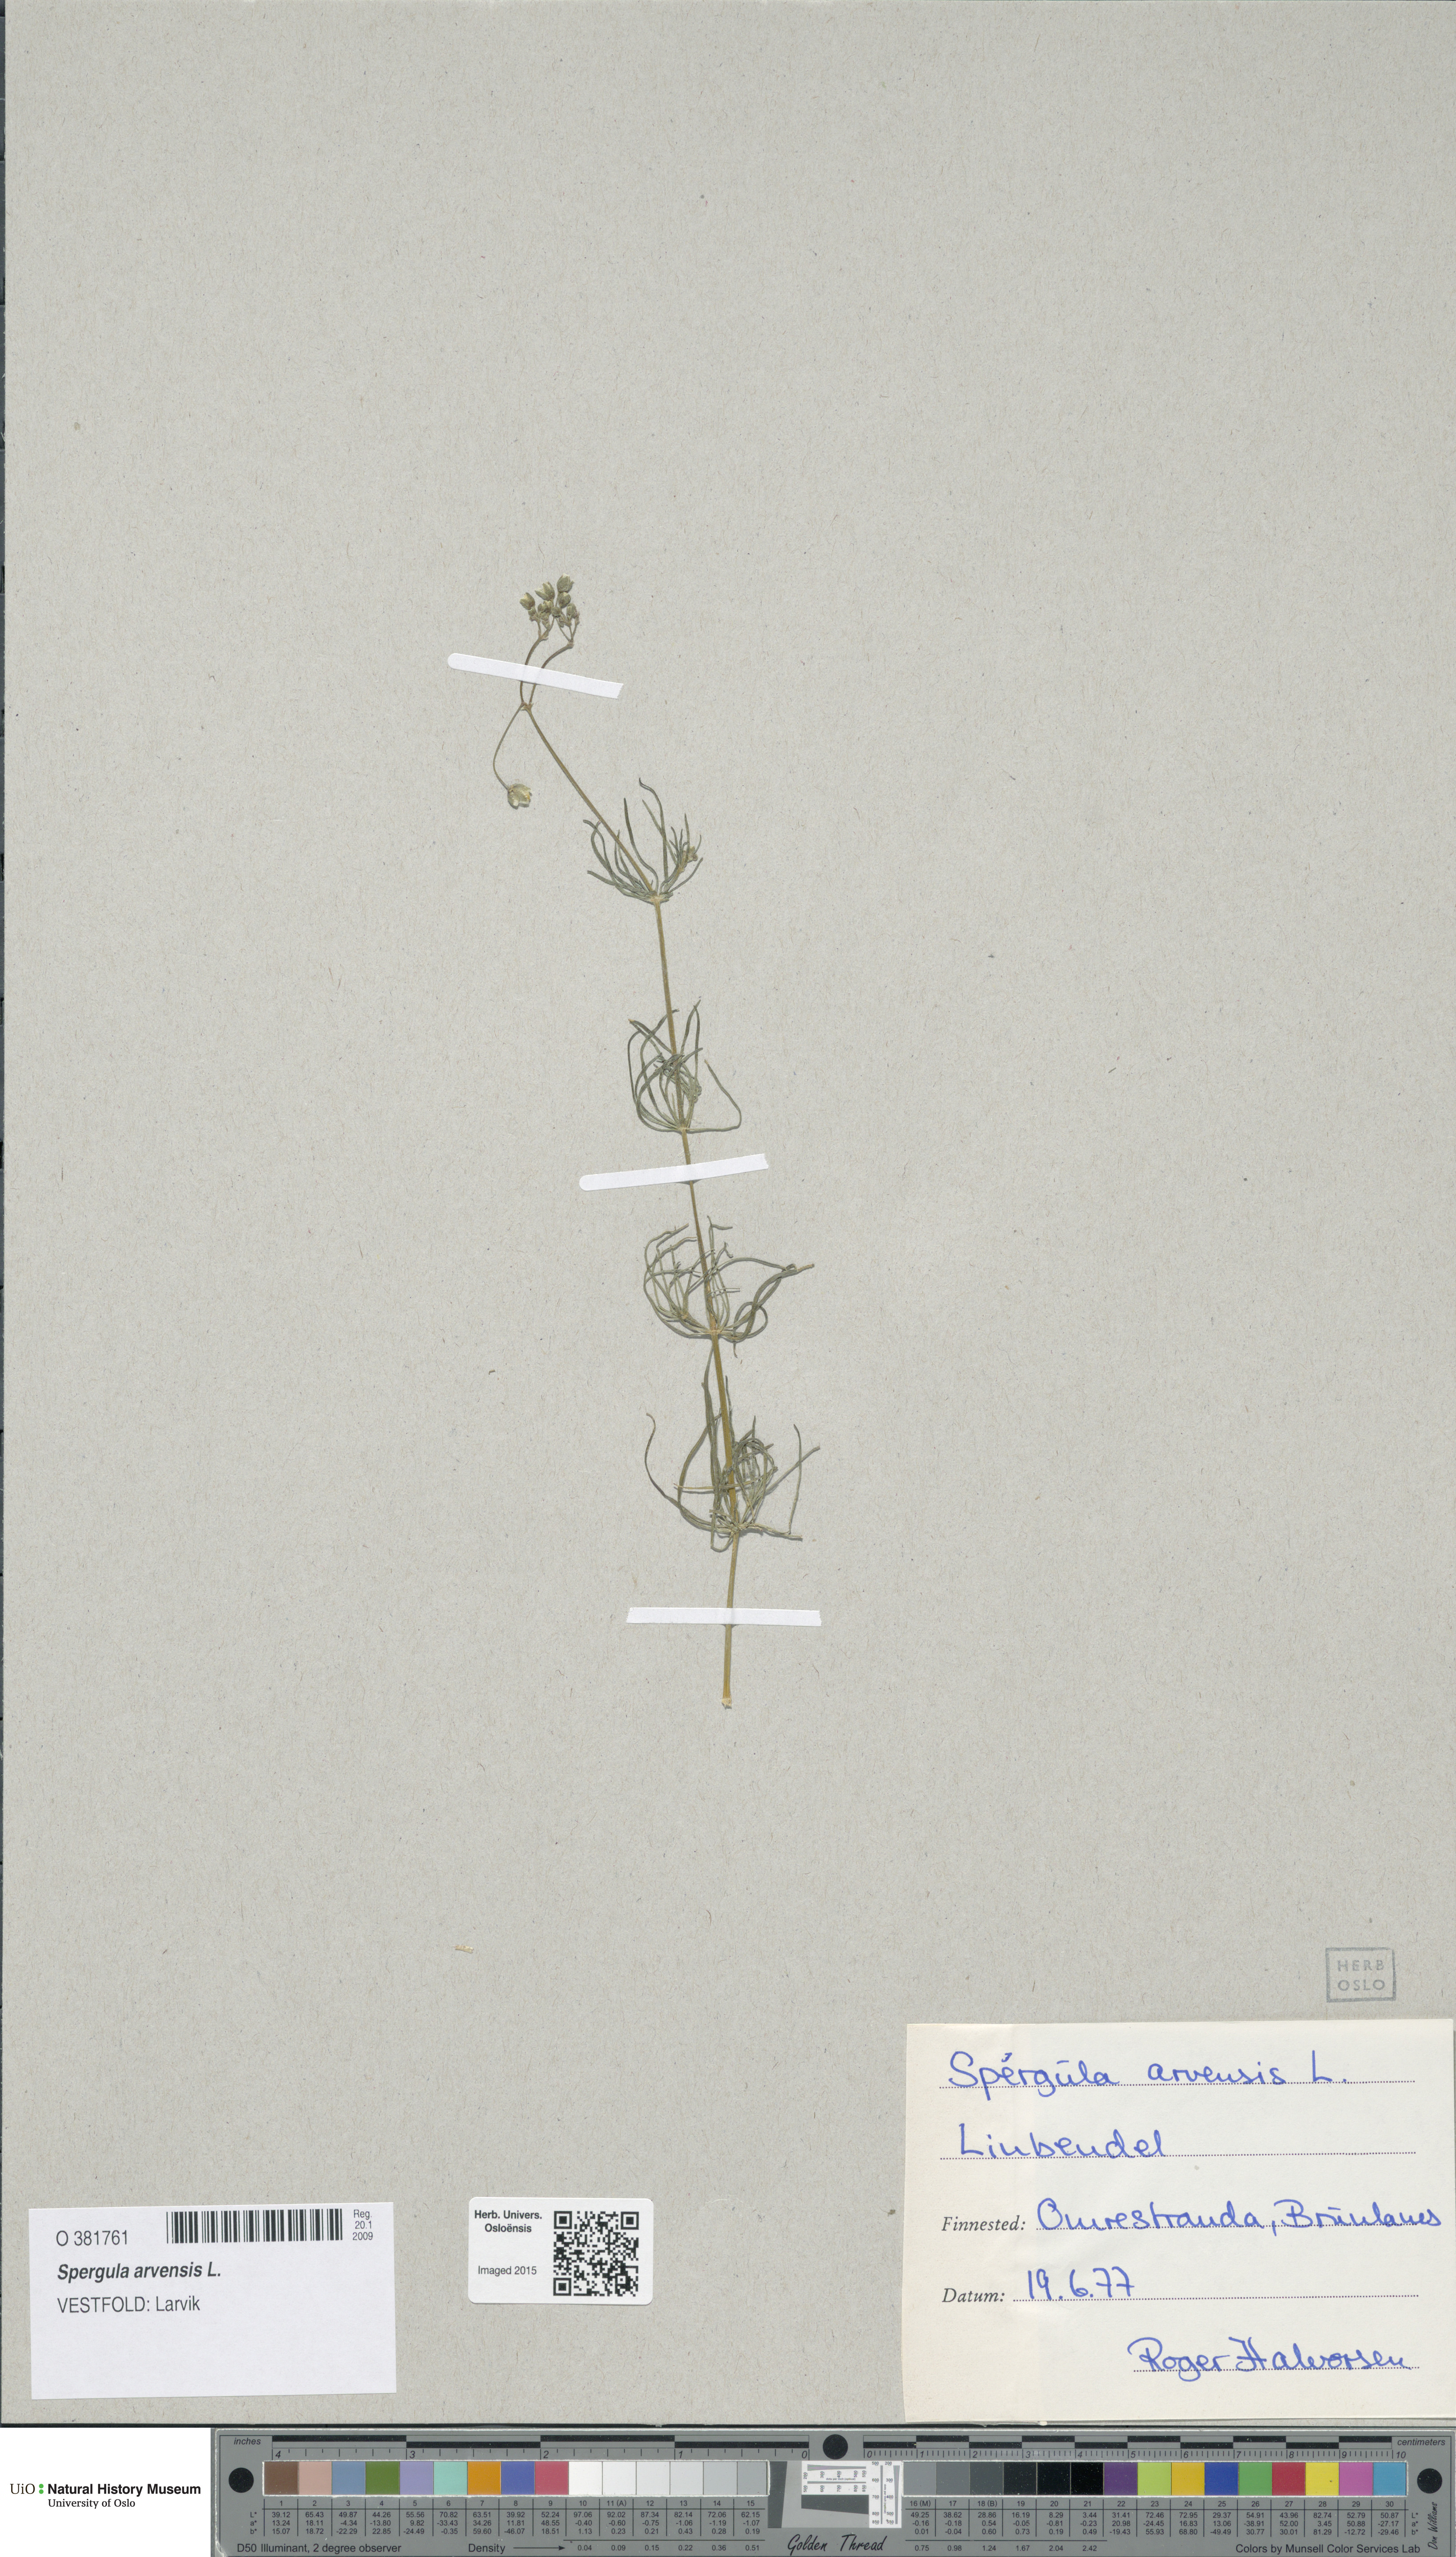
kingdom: Plantae
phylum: Tracheophyta
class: Magnoliopsida
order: Caryophyllales
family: Caryophyllaceae
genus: Spergula
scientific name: Spergula arvensis
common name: Corn spurrey
